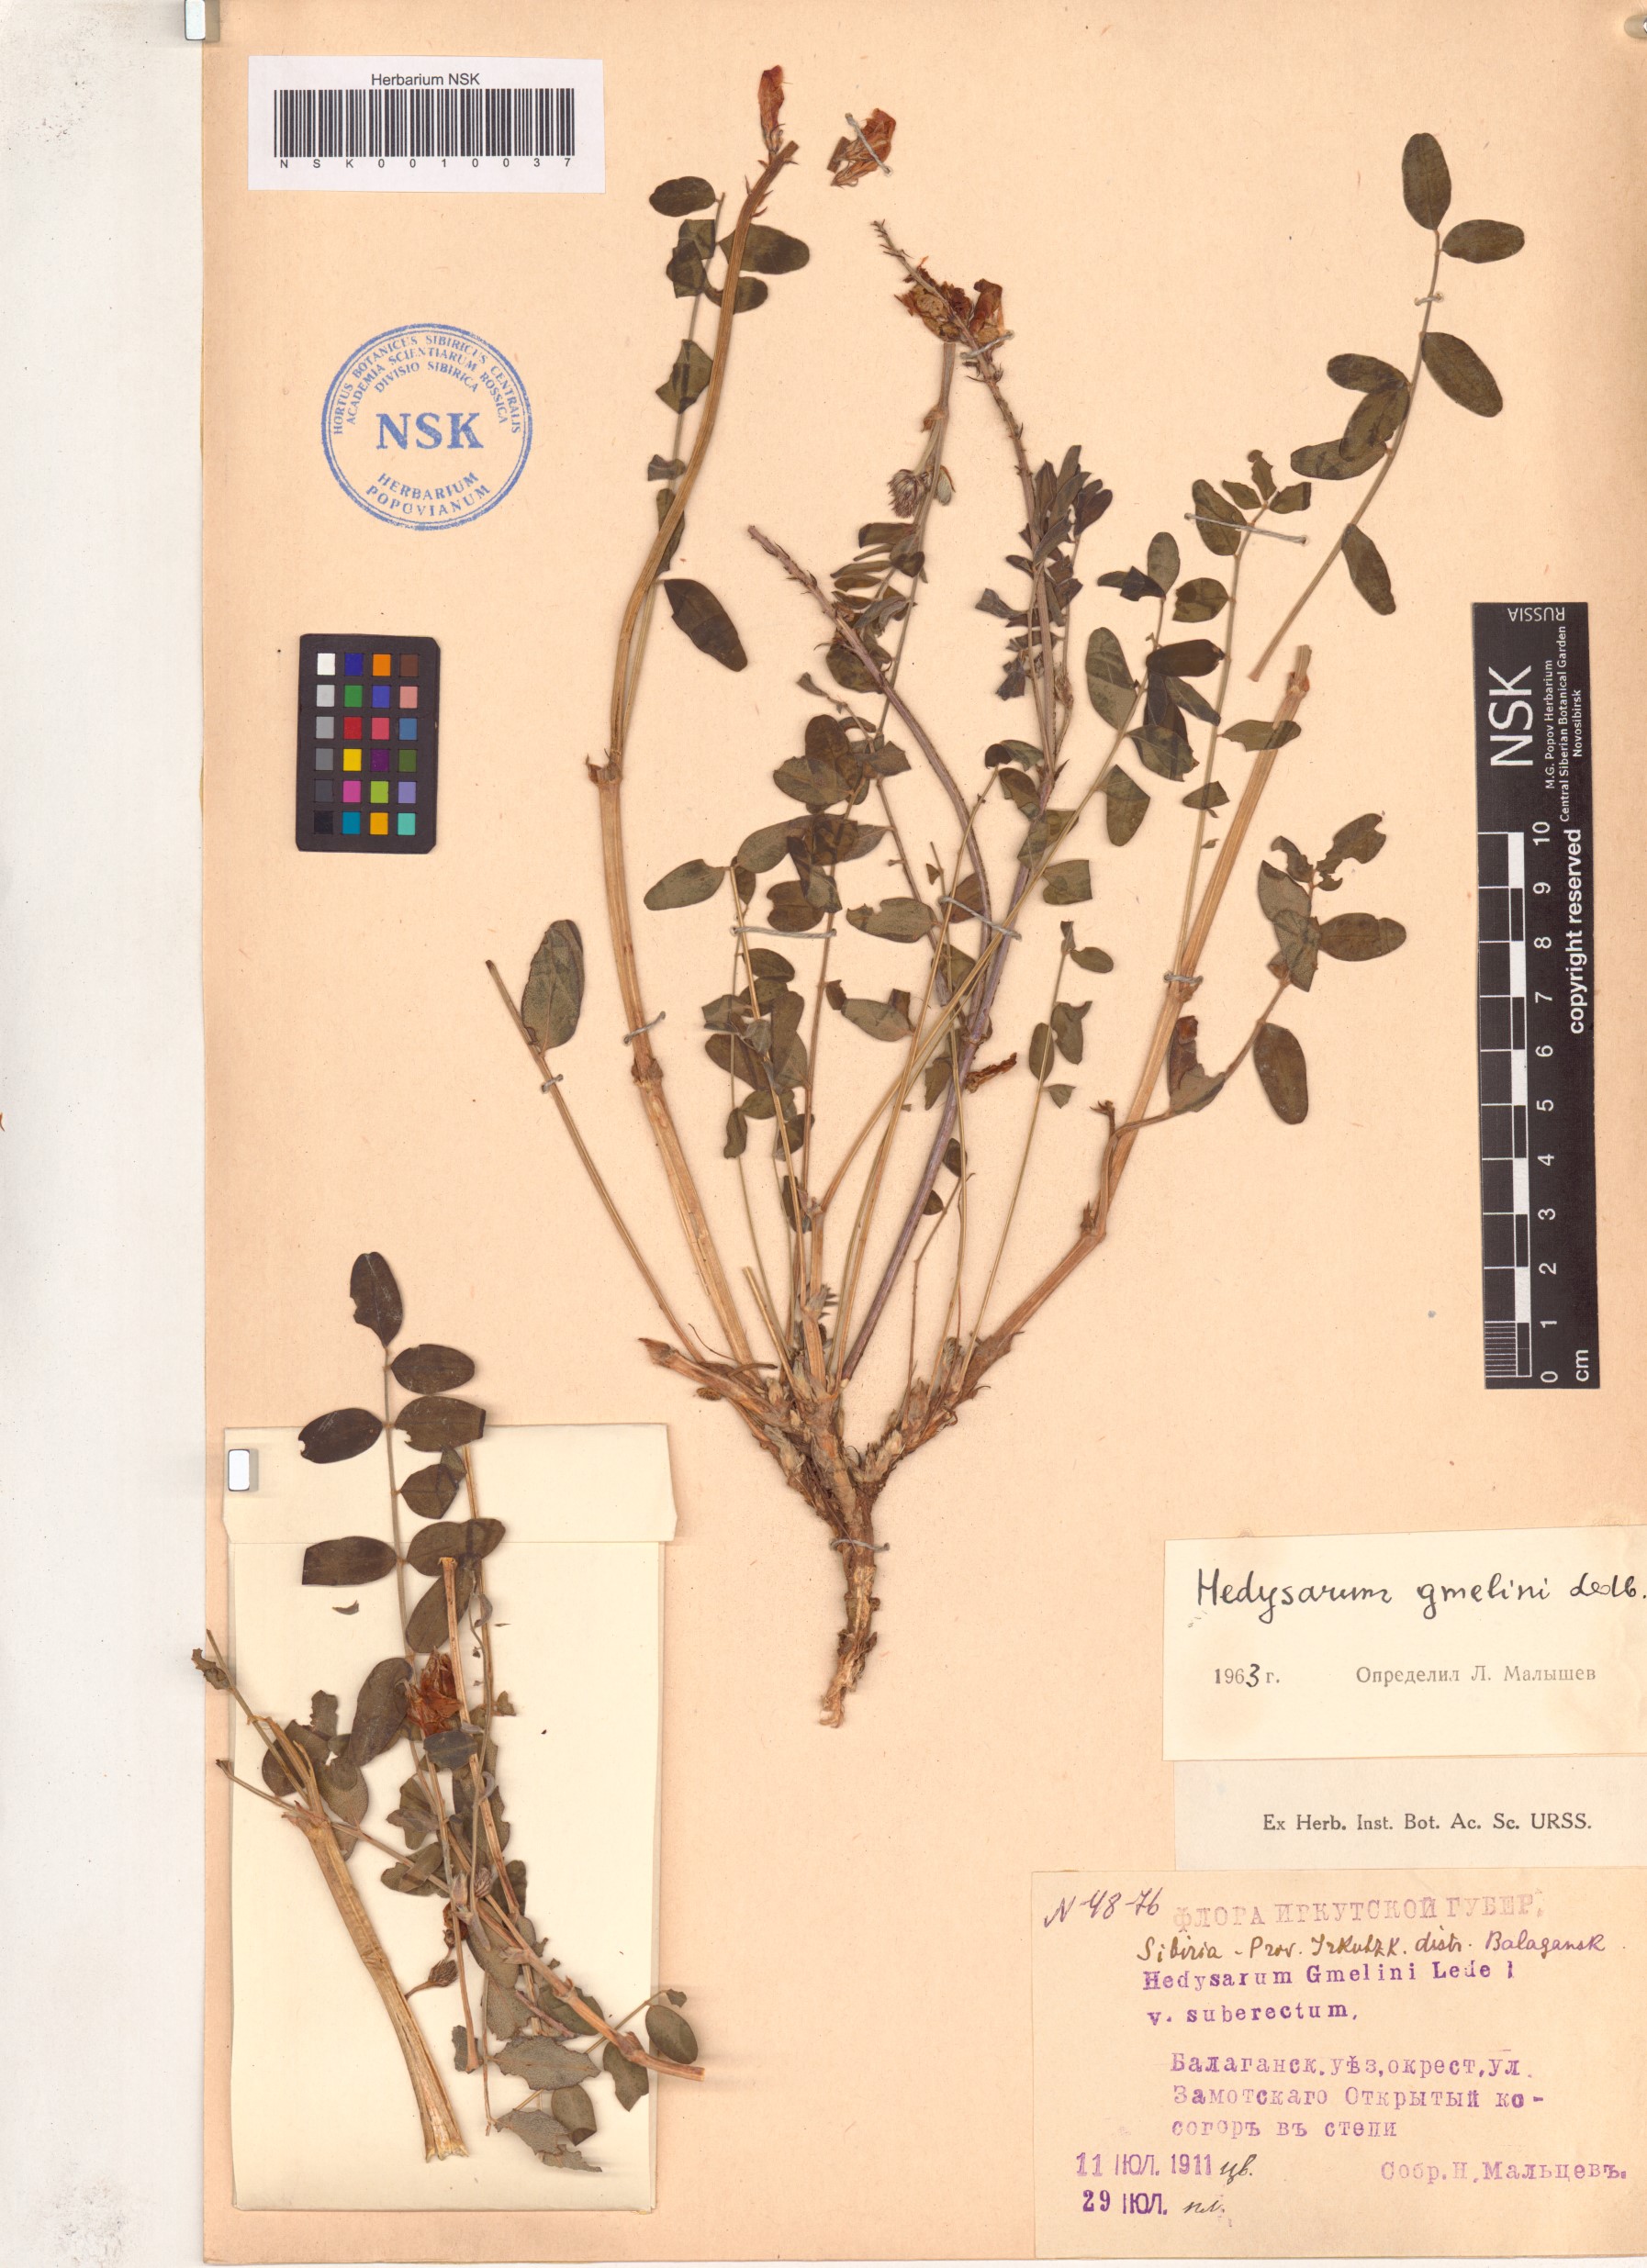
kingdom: Plantae
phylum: Tracheophyta
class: Magnoliopsida
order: Fabales
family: Fabaceae
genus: Hedysarum
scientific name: Hedysarum gmelinii
